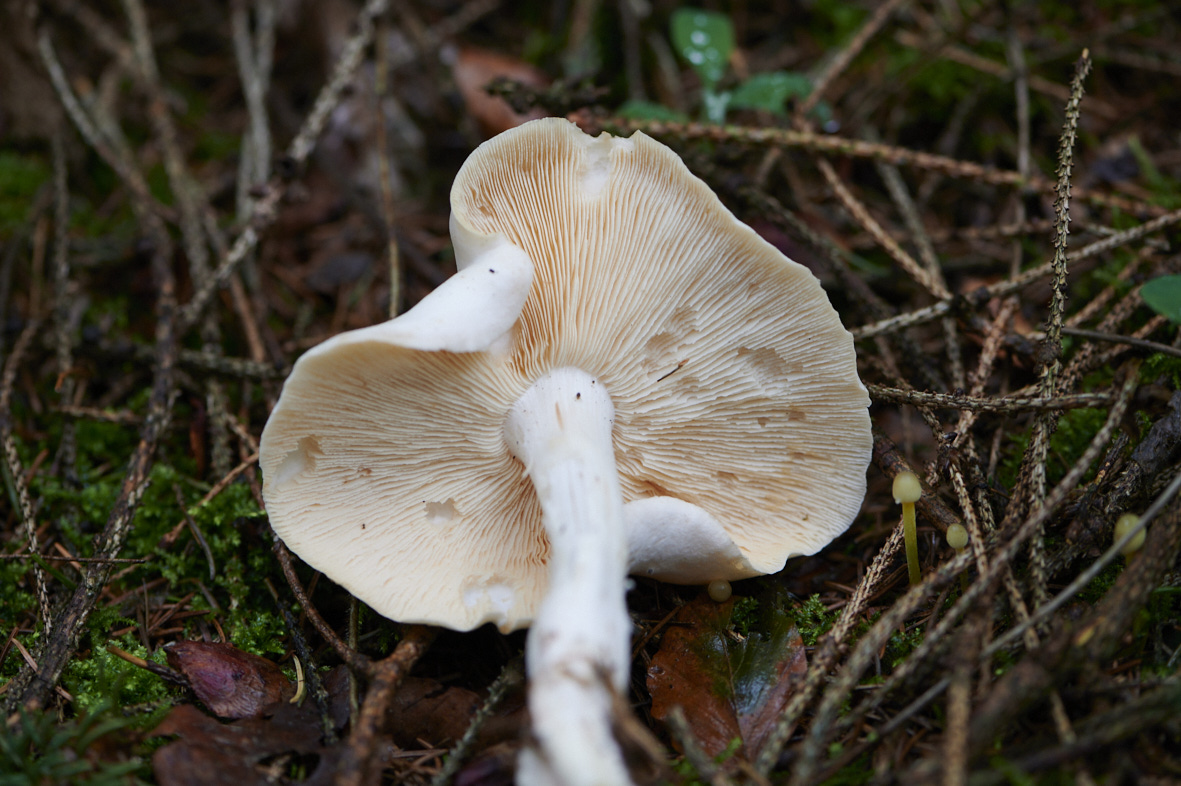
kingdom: Fungi
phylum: Basidiomycota
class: Agaricomycetes
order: Agaricales
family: Omphalotaceae
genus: Rhodocollybia
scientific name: Rhodocollybia maculata
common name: plettet fladhat
